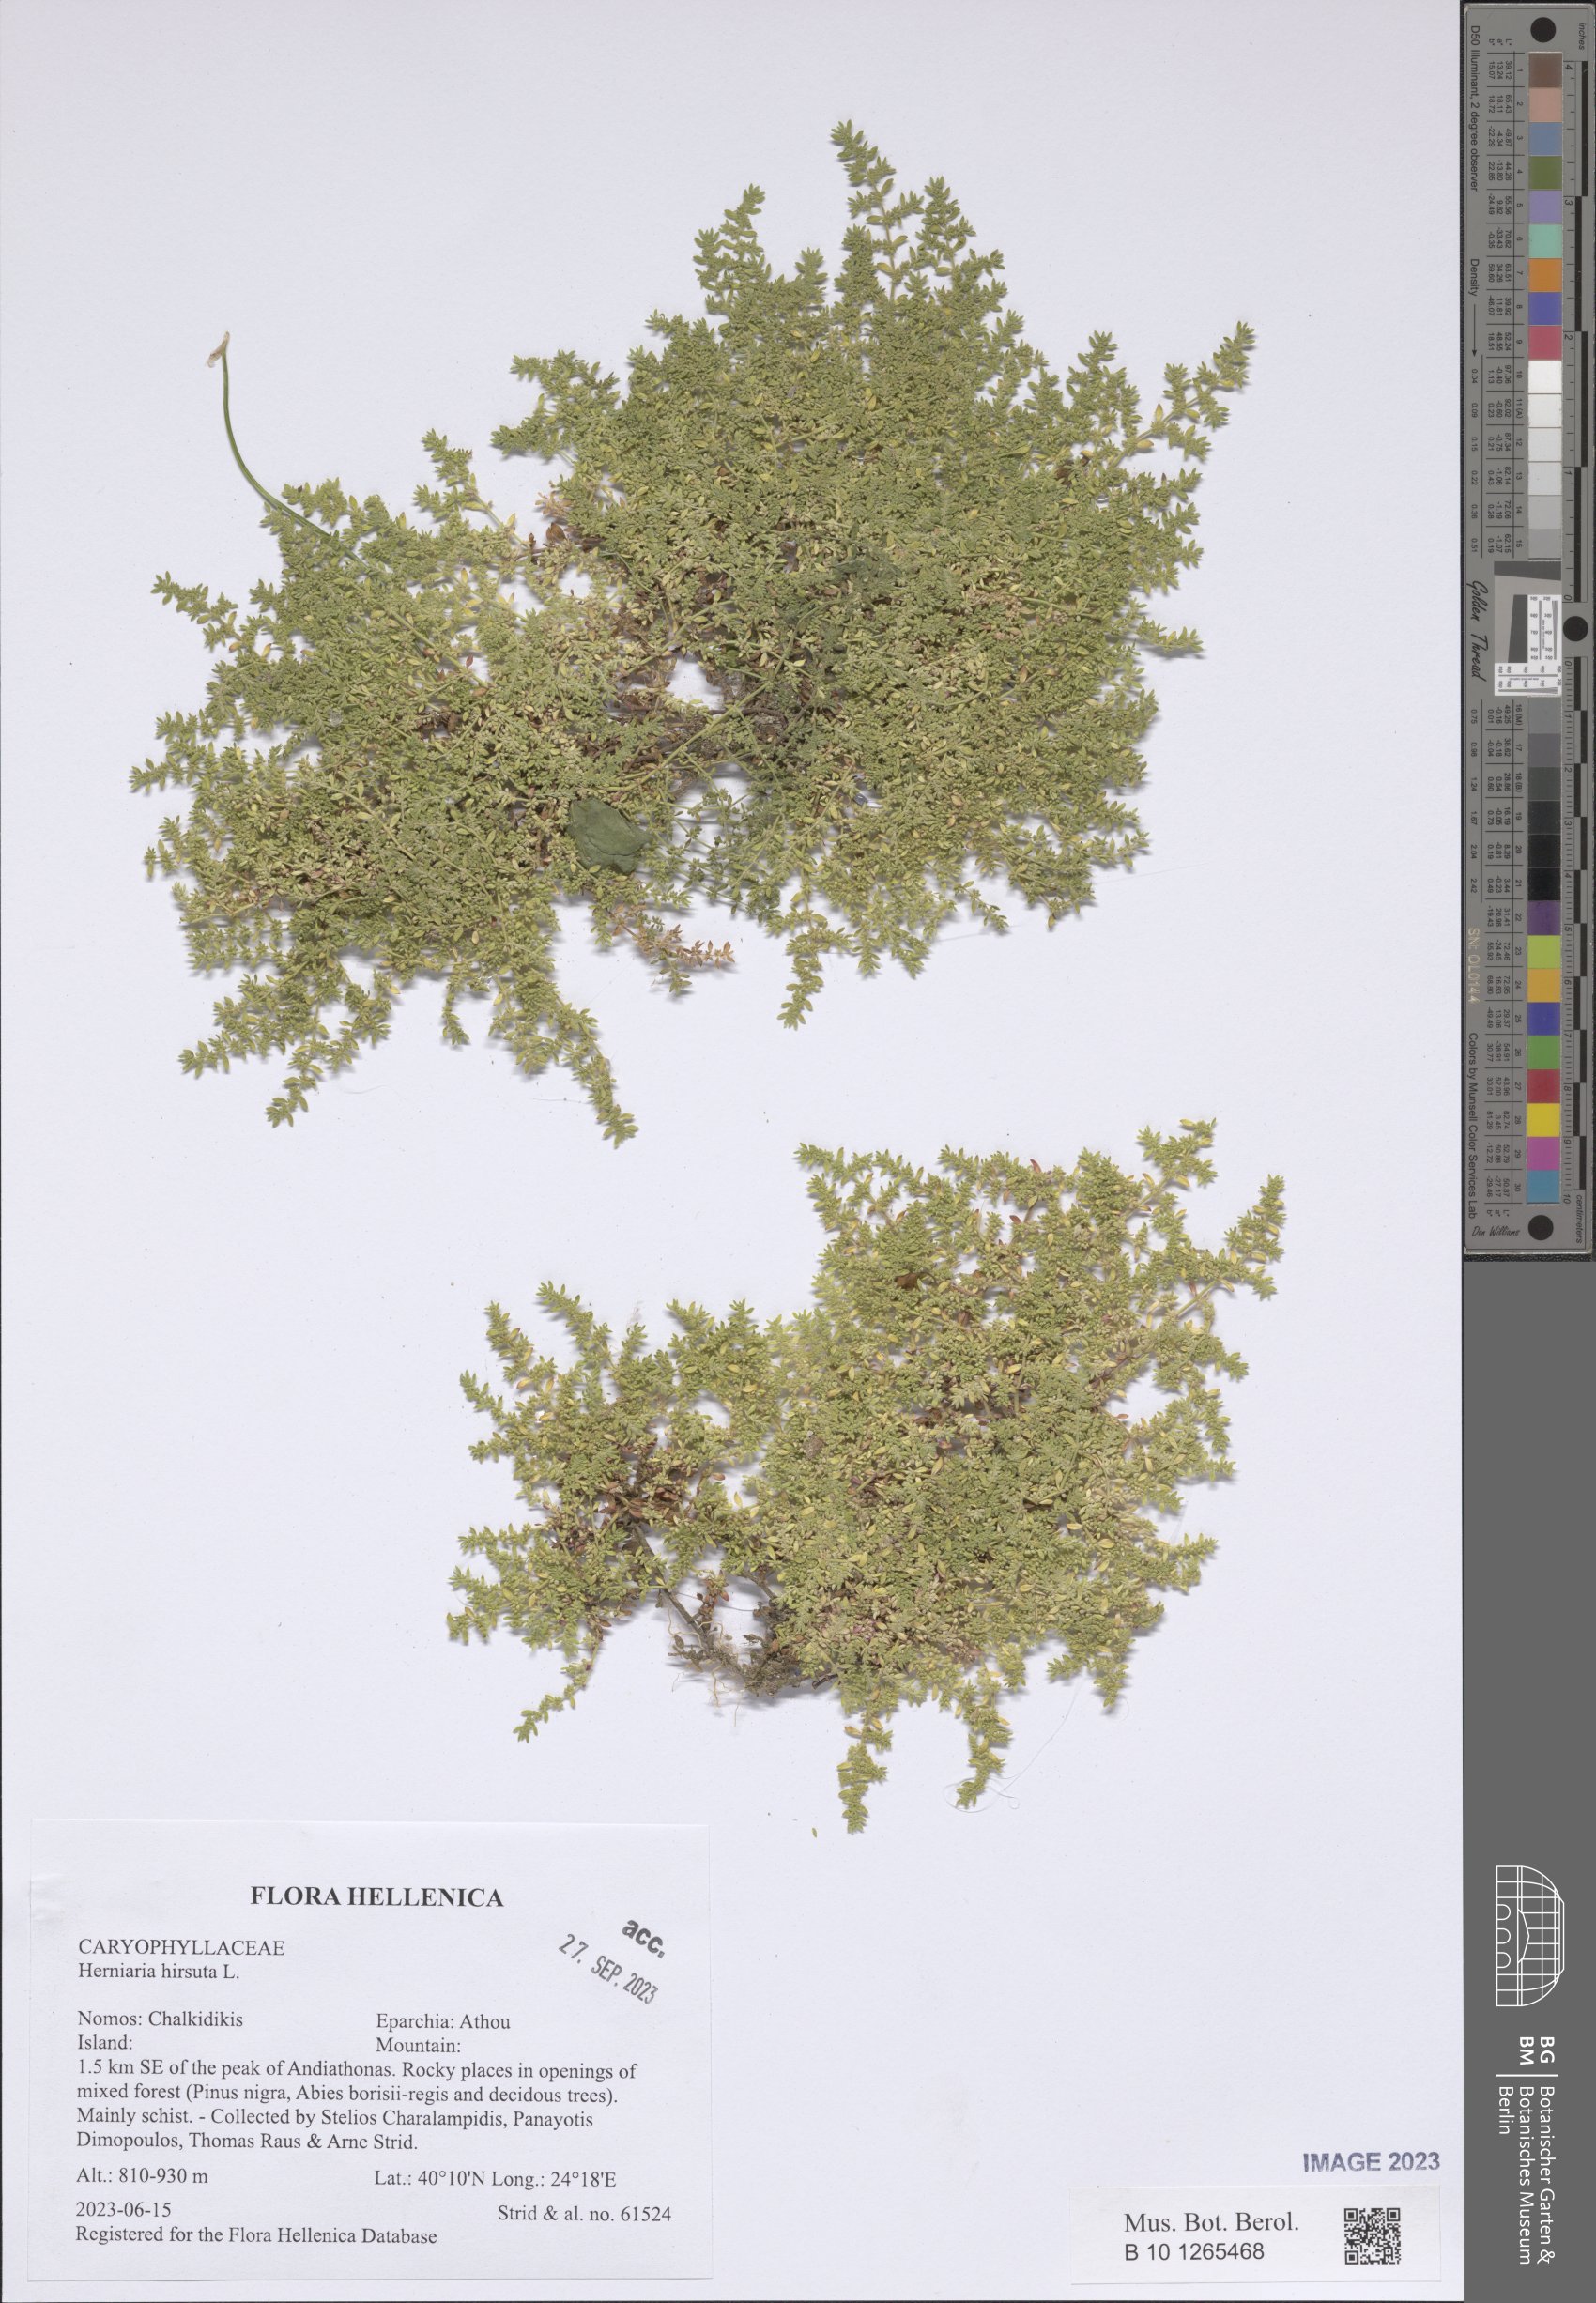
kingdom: Plantae
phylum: Tracheophyta
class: Magnoliopsida
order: Caryophyllales
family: Caryophyllaceae
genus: Herniaria
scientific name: Herniaria hirsuta
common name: Hairy rupturewort
